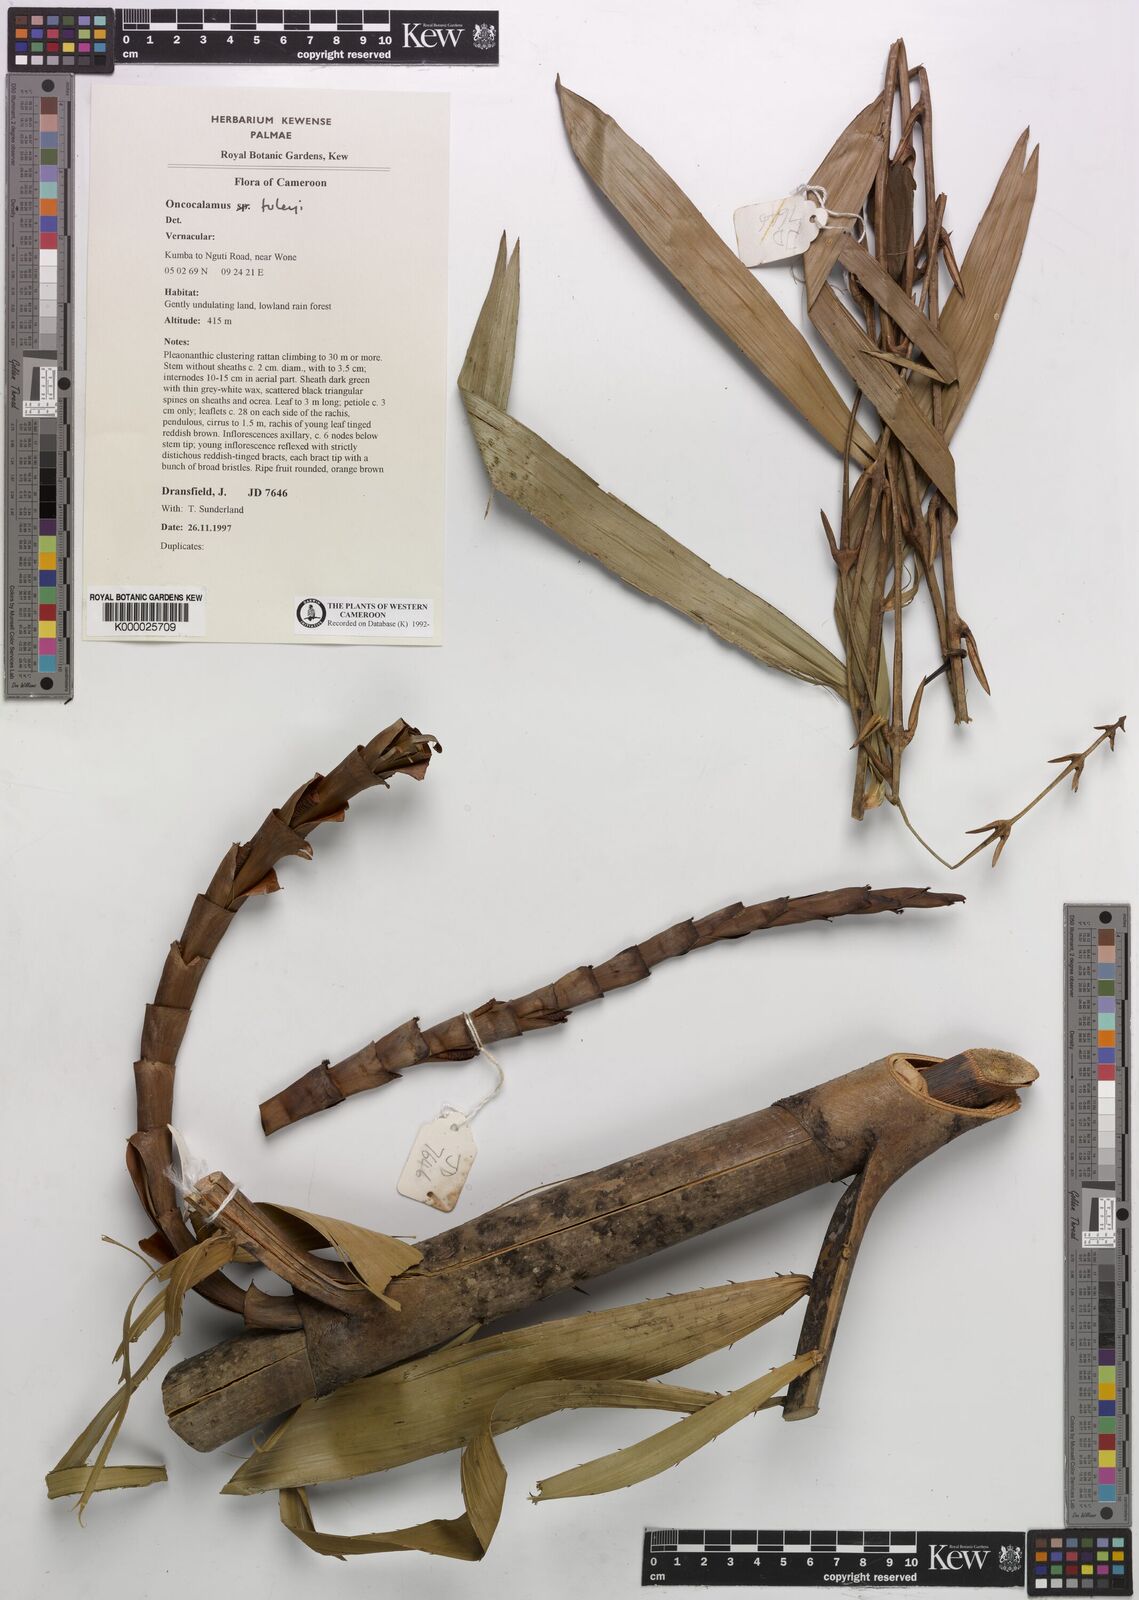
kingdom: Plantae
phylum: Tracheophyta
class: Liliopsida
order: Arecales
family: Arecaceae
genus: Oncocalamus
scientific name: Oncocalamus tuleyi
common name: Rattan
